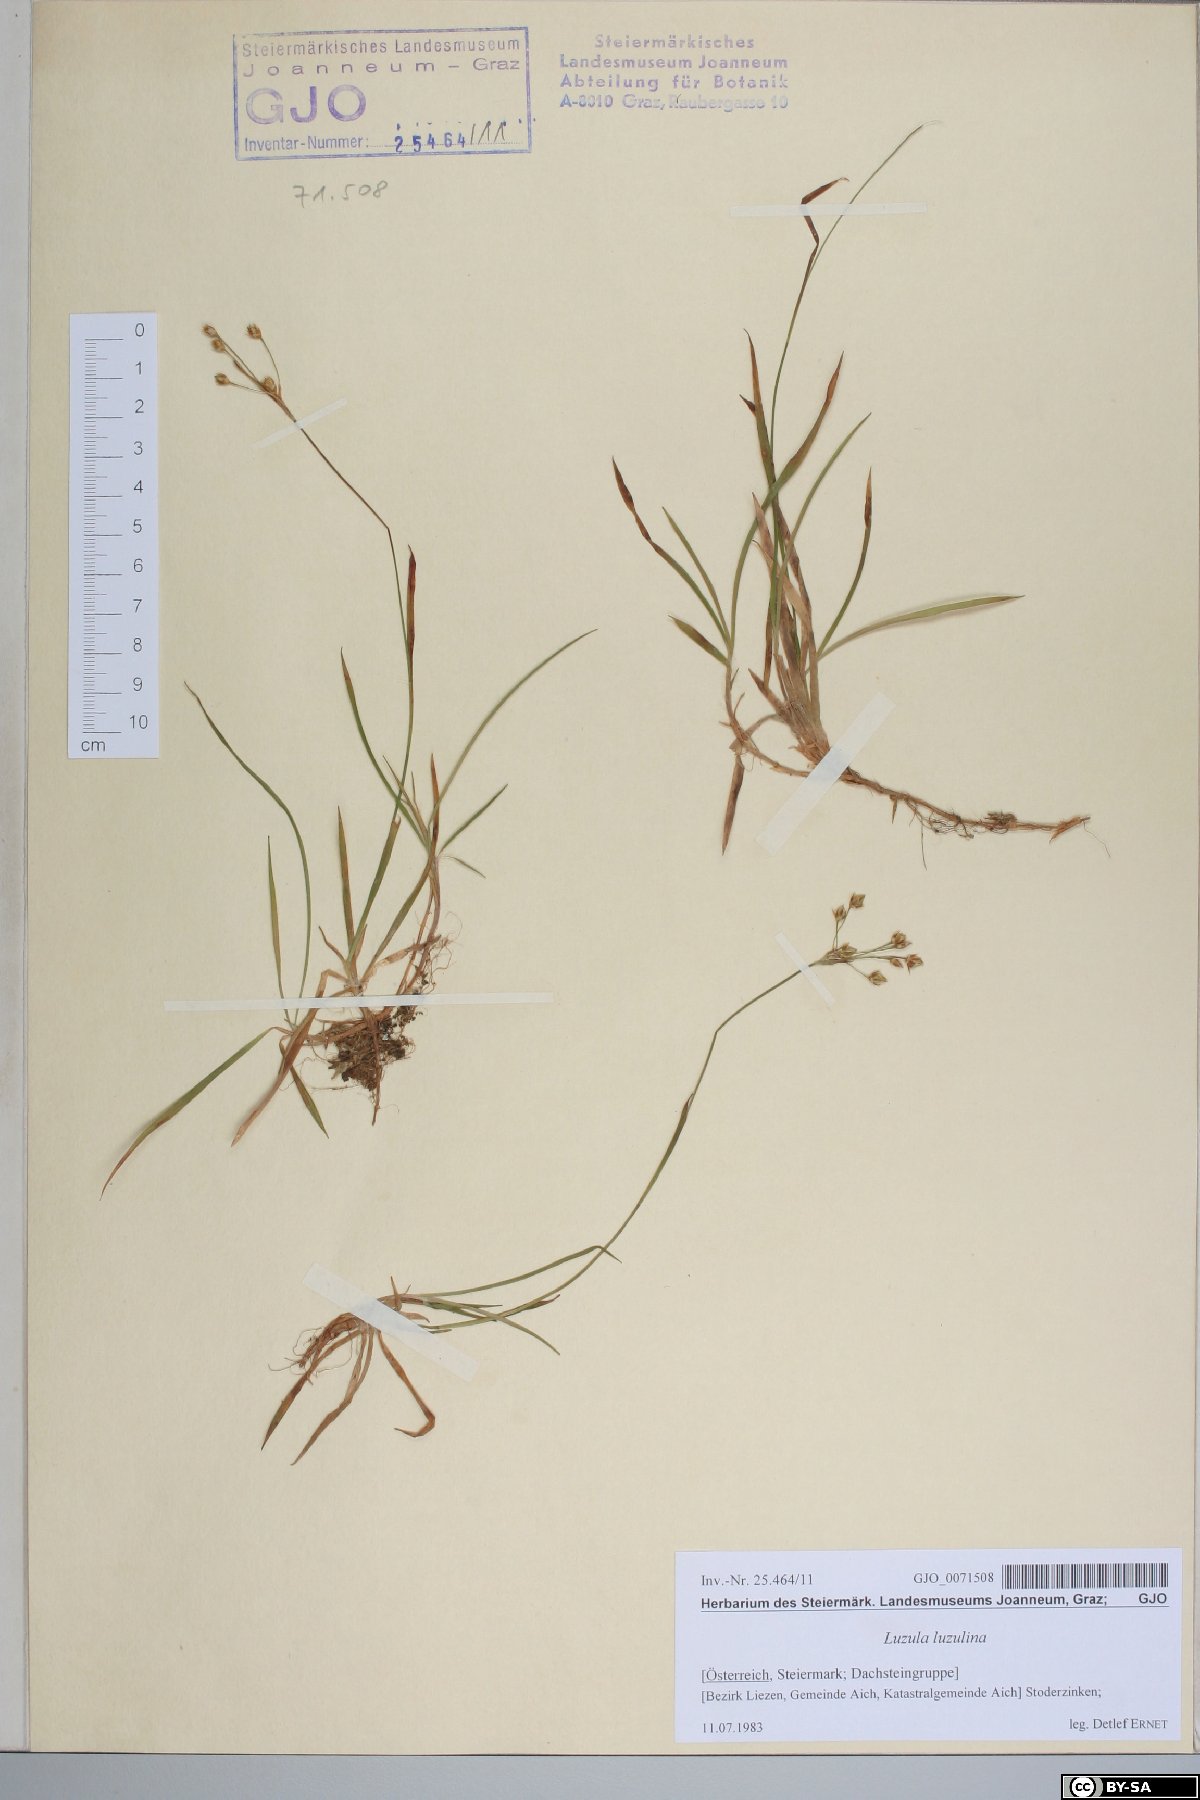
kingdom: Plantae
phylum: Tracheophyta
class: Liliopsida
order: Poales
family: Juncaceae
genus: Luzula
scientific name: Luzula luzulina
